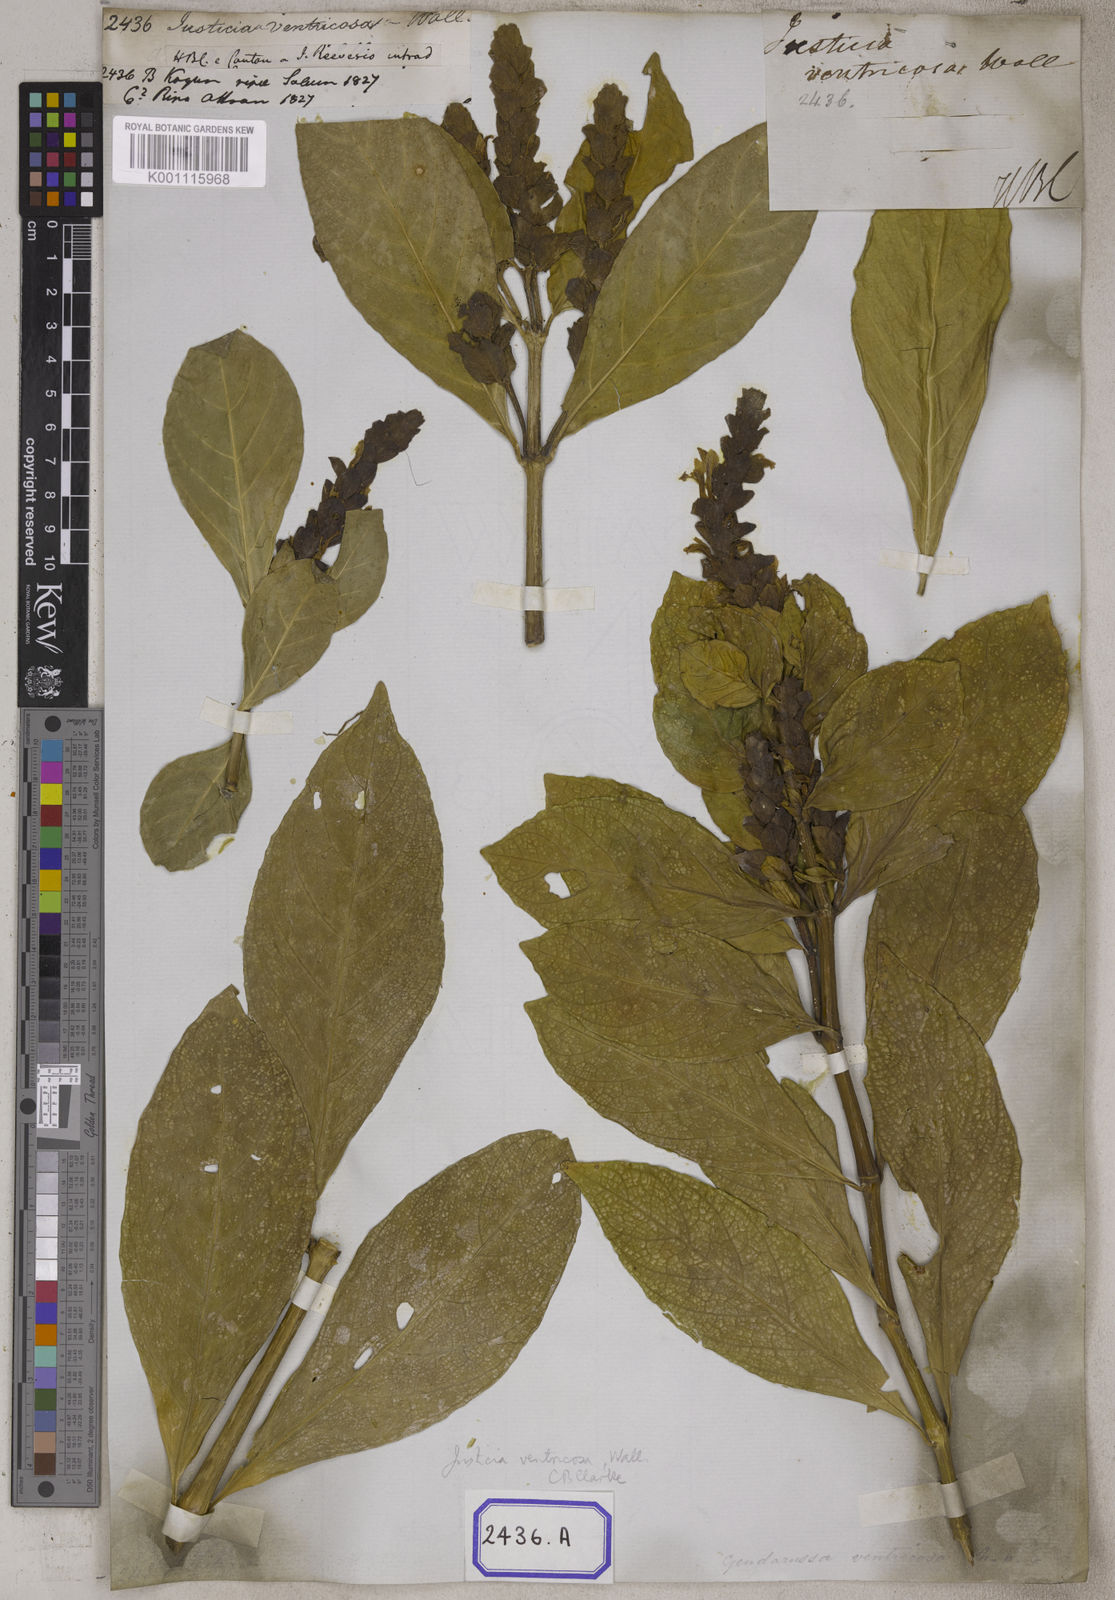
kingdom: Plantae
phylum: Tracheophyta
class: Magnoliopsida
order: Lamiales
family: Acanthaceae
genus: Justicia
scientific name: Justicia
